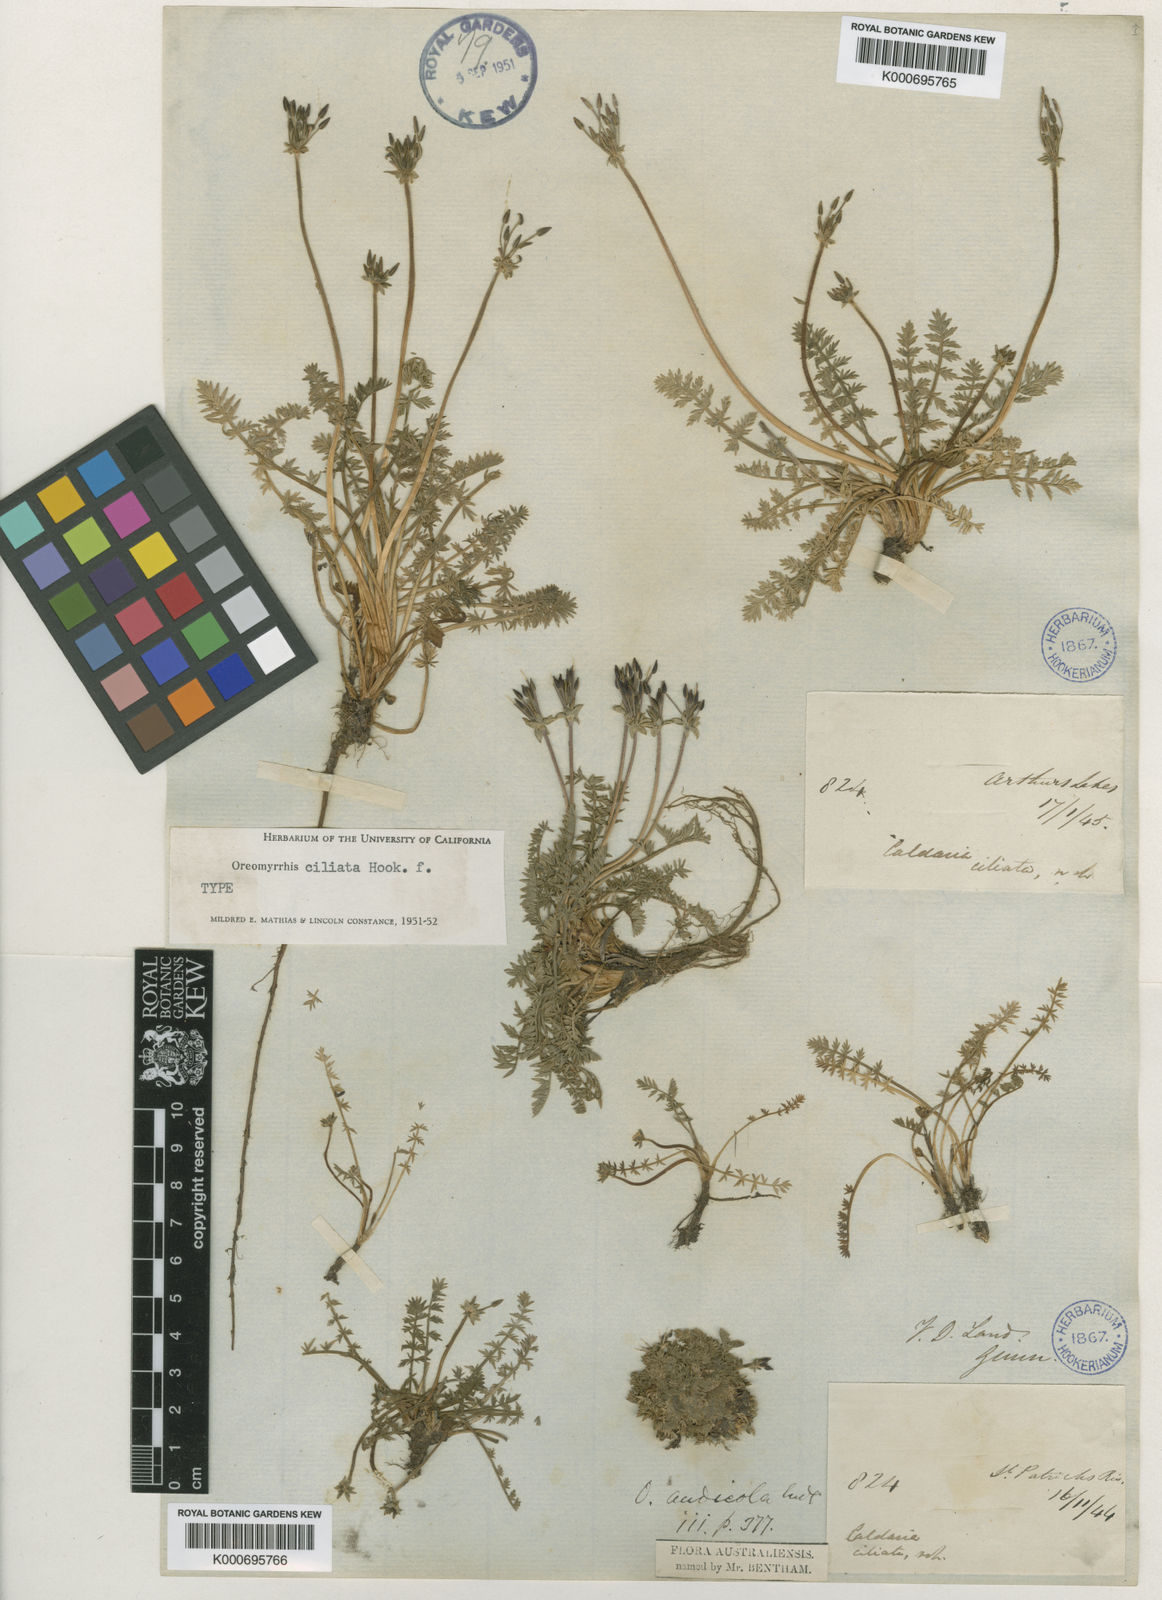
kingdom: Plantae
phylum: Tracheophyta
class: Magnoliopsida
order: Apiales
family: Apiaceae
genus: Chaerophyllum
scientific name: Chaerophyllum australianum
